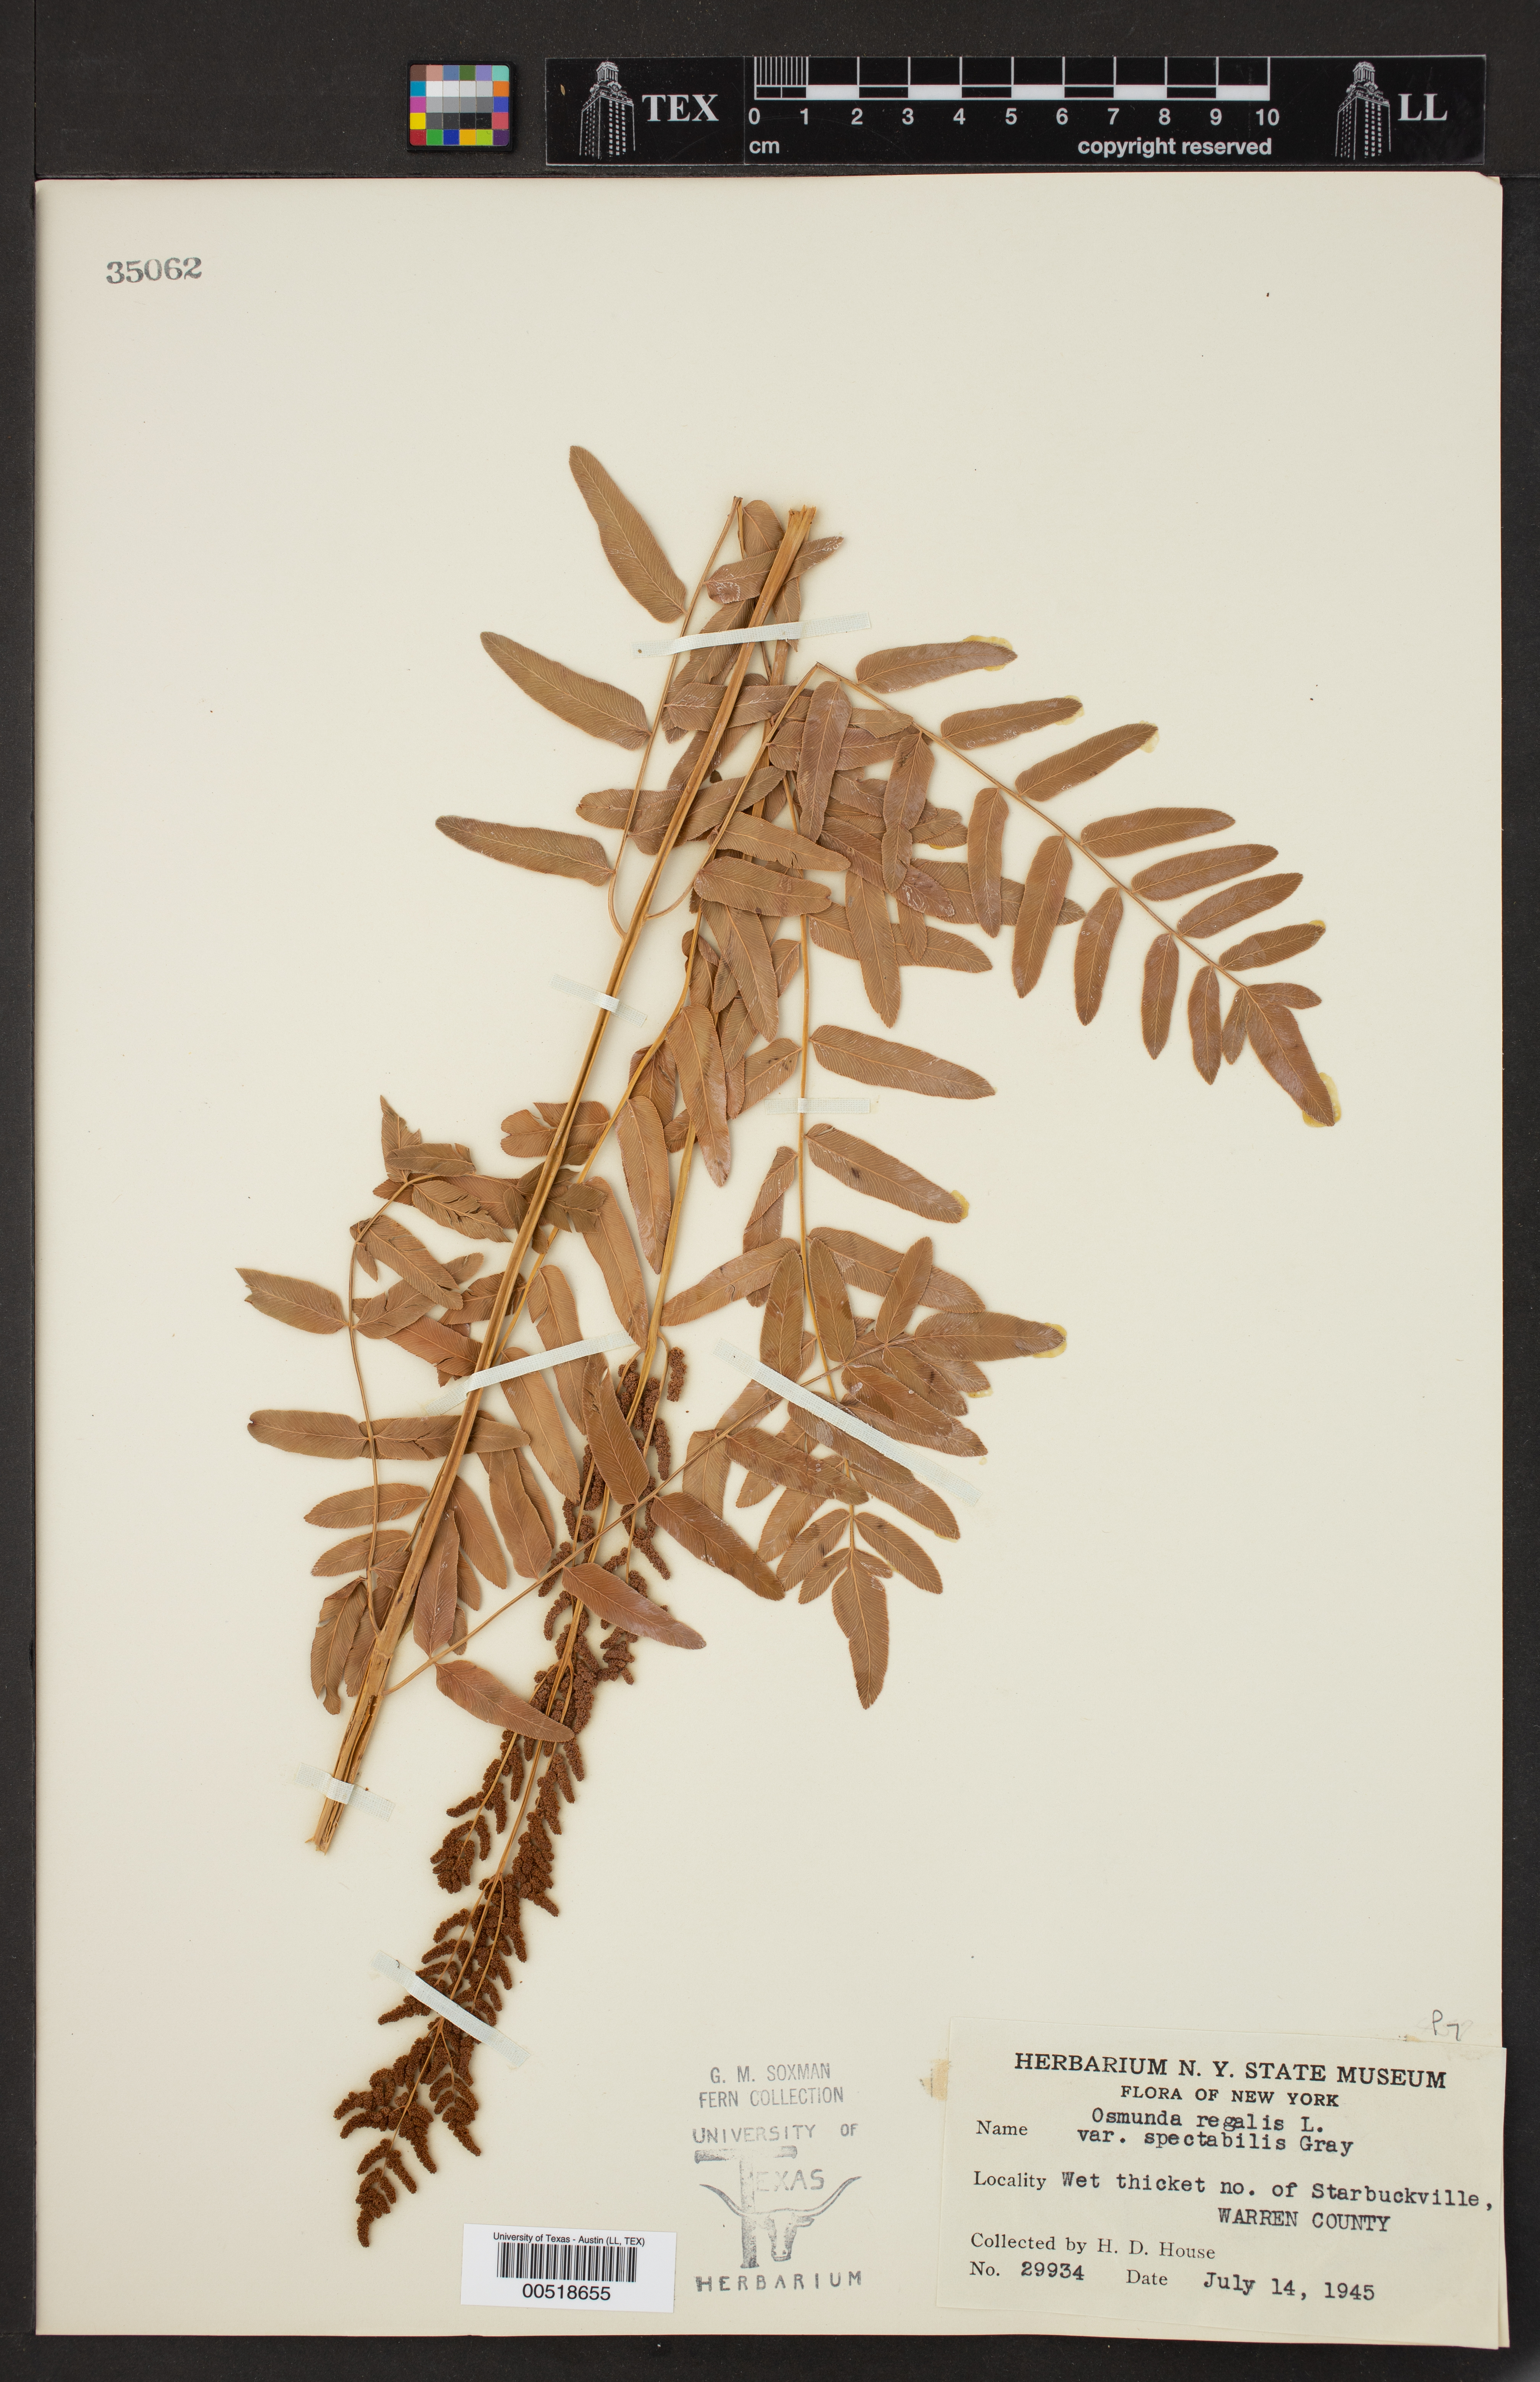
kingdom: Plantae
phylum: Tracheophyta
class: Polypodiopsida
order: Osmundales
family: Osmundaceae
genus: Osmunda
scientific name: Osmunda spectabilis
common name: American royal fern
